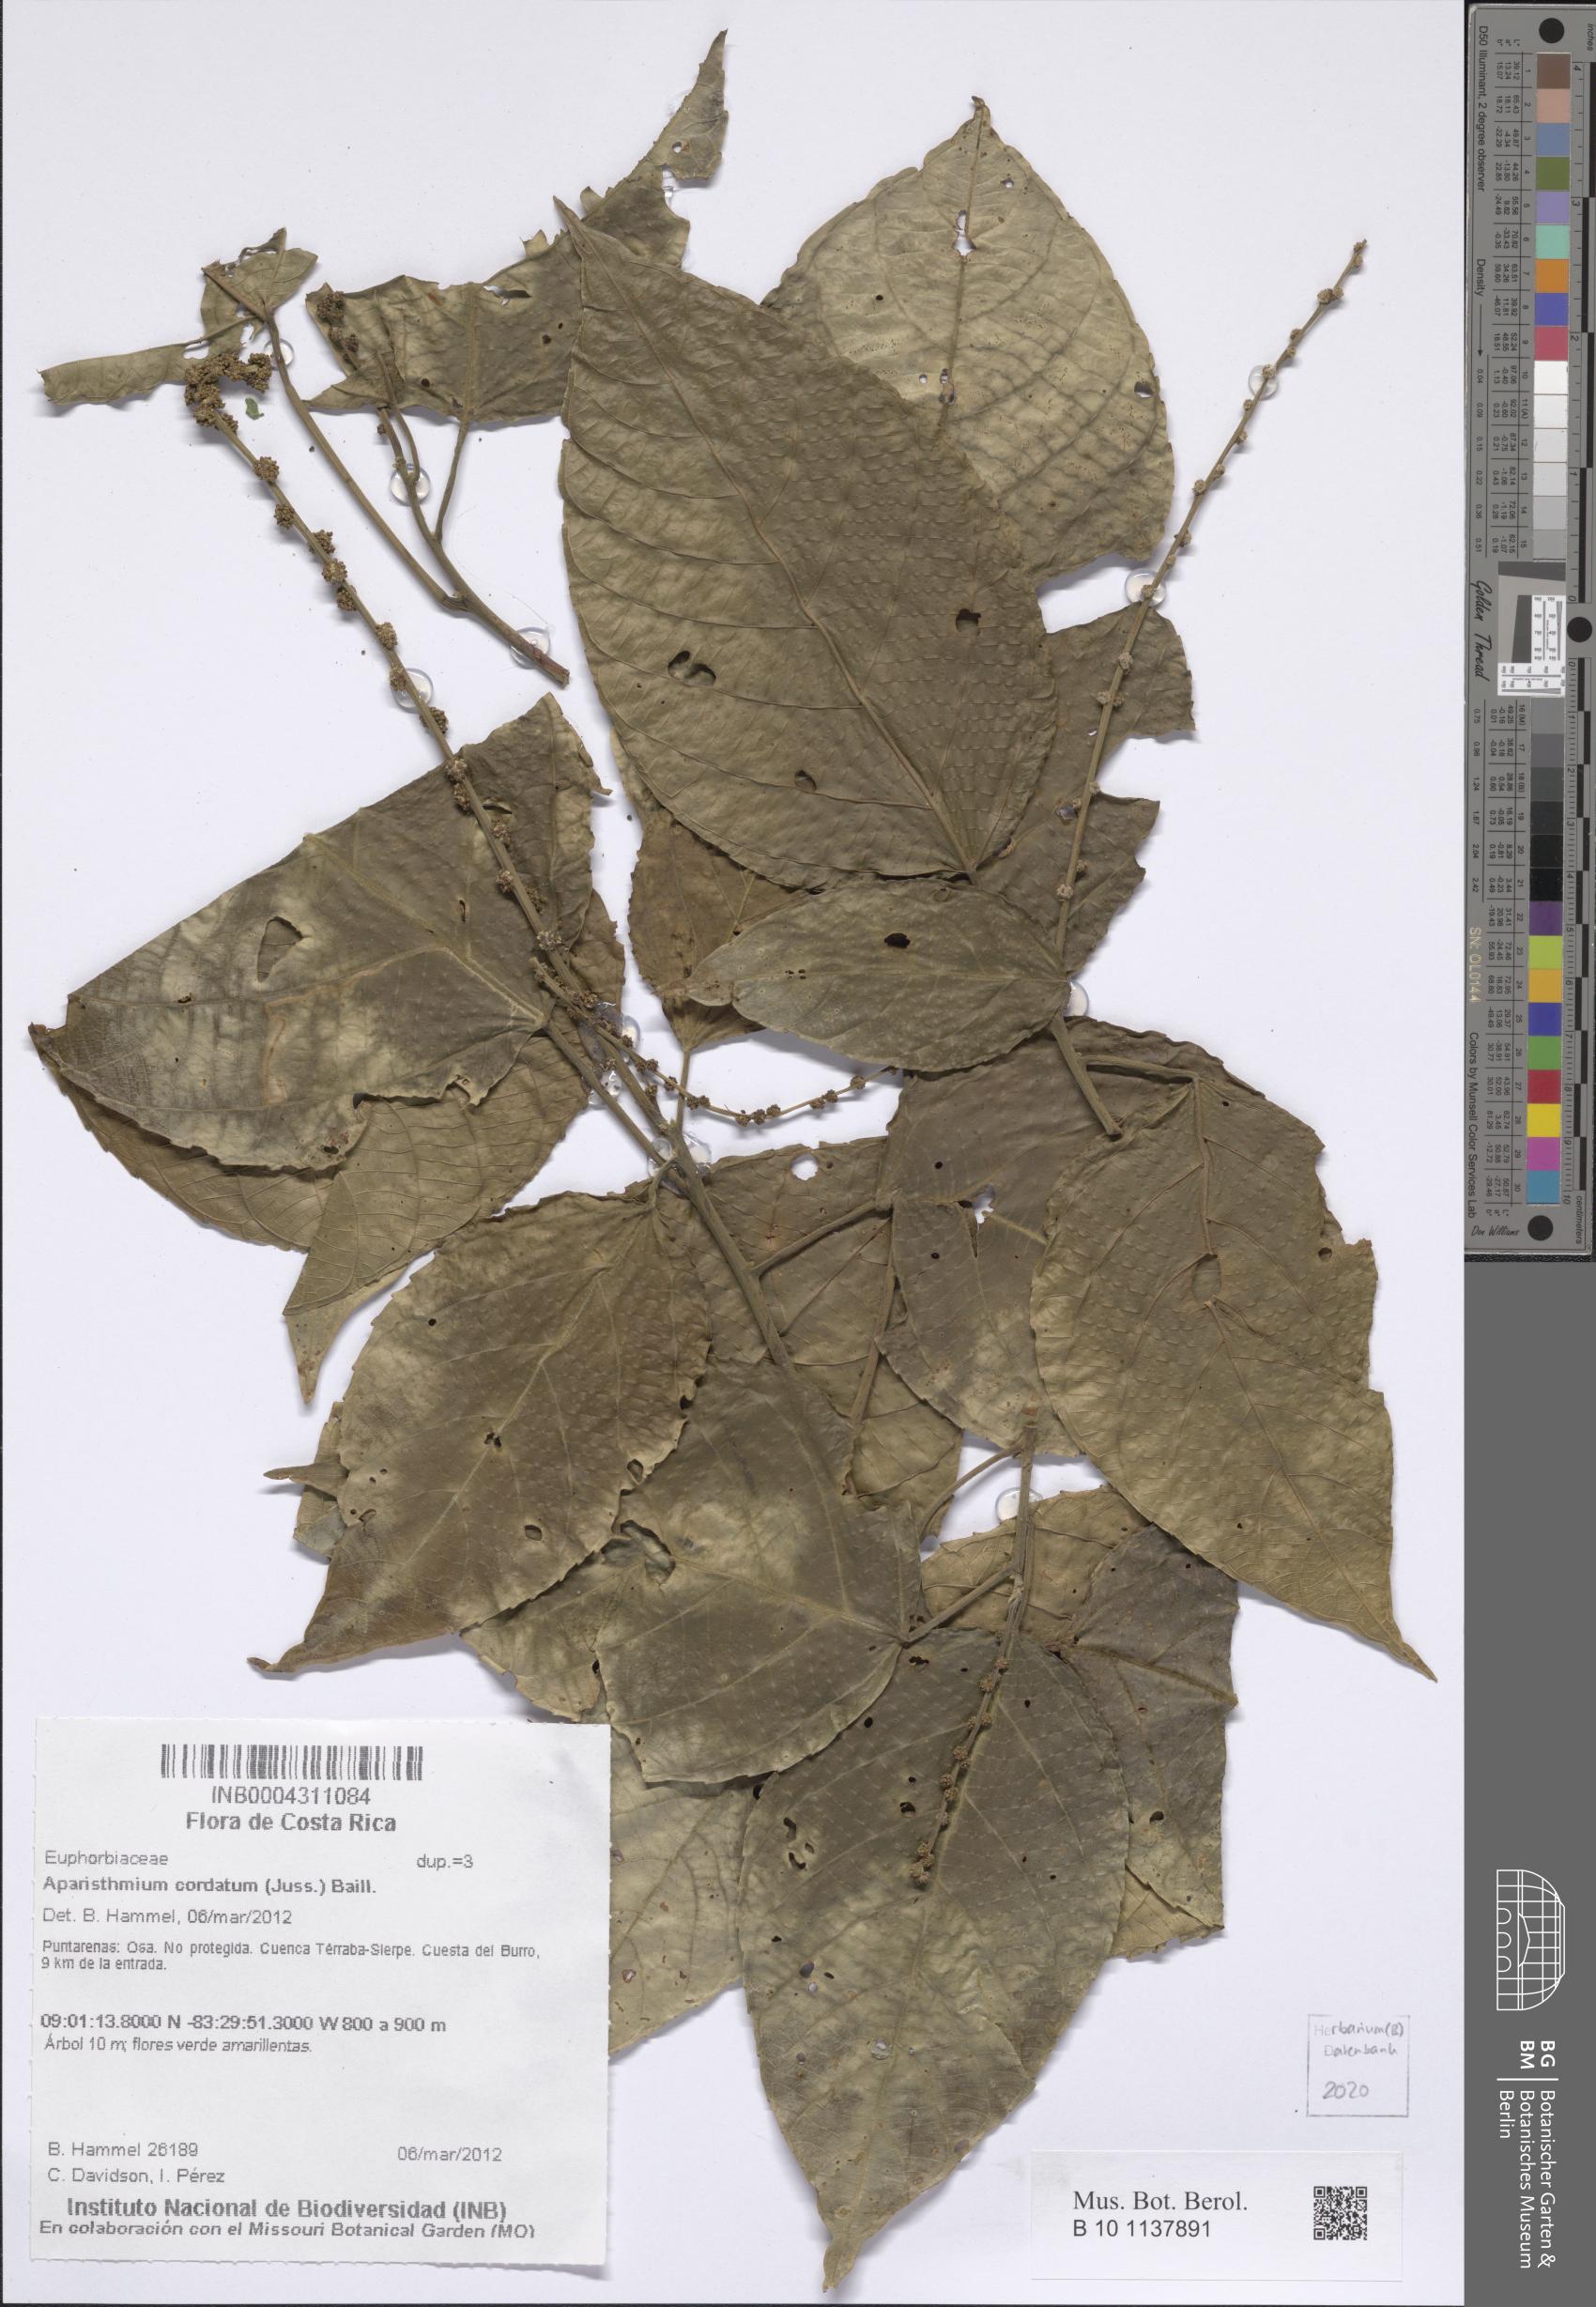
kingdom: Plantae
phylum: Tracheophyta
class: Magnoliopsida
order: Malpighiales
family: Euphorbiaceae
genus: Aparisthmium
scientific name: Aparisthmium cordatum
